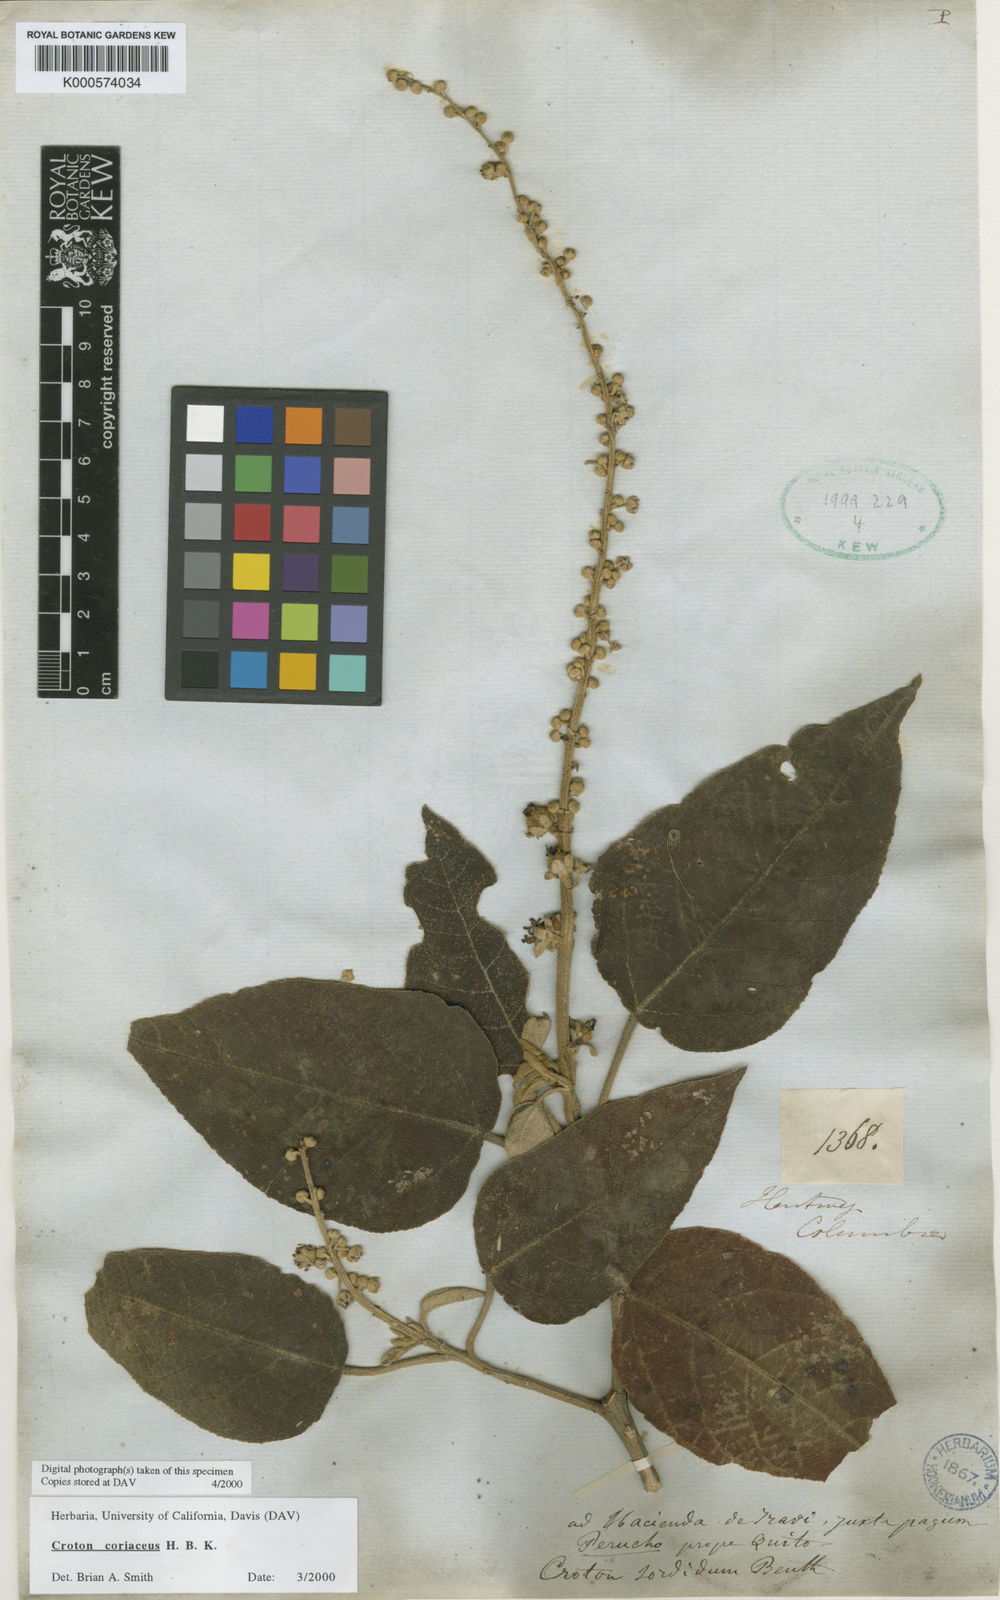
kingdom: Plantae
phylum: Tracheophyta
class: Magnoliopsida
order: Malpighiales
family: Euphorbiaceae
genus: Croton
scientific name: Croton coriaceus
